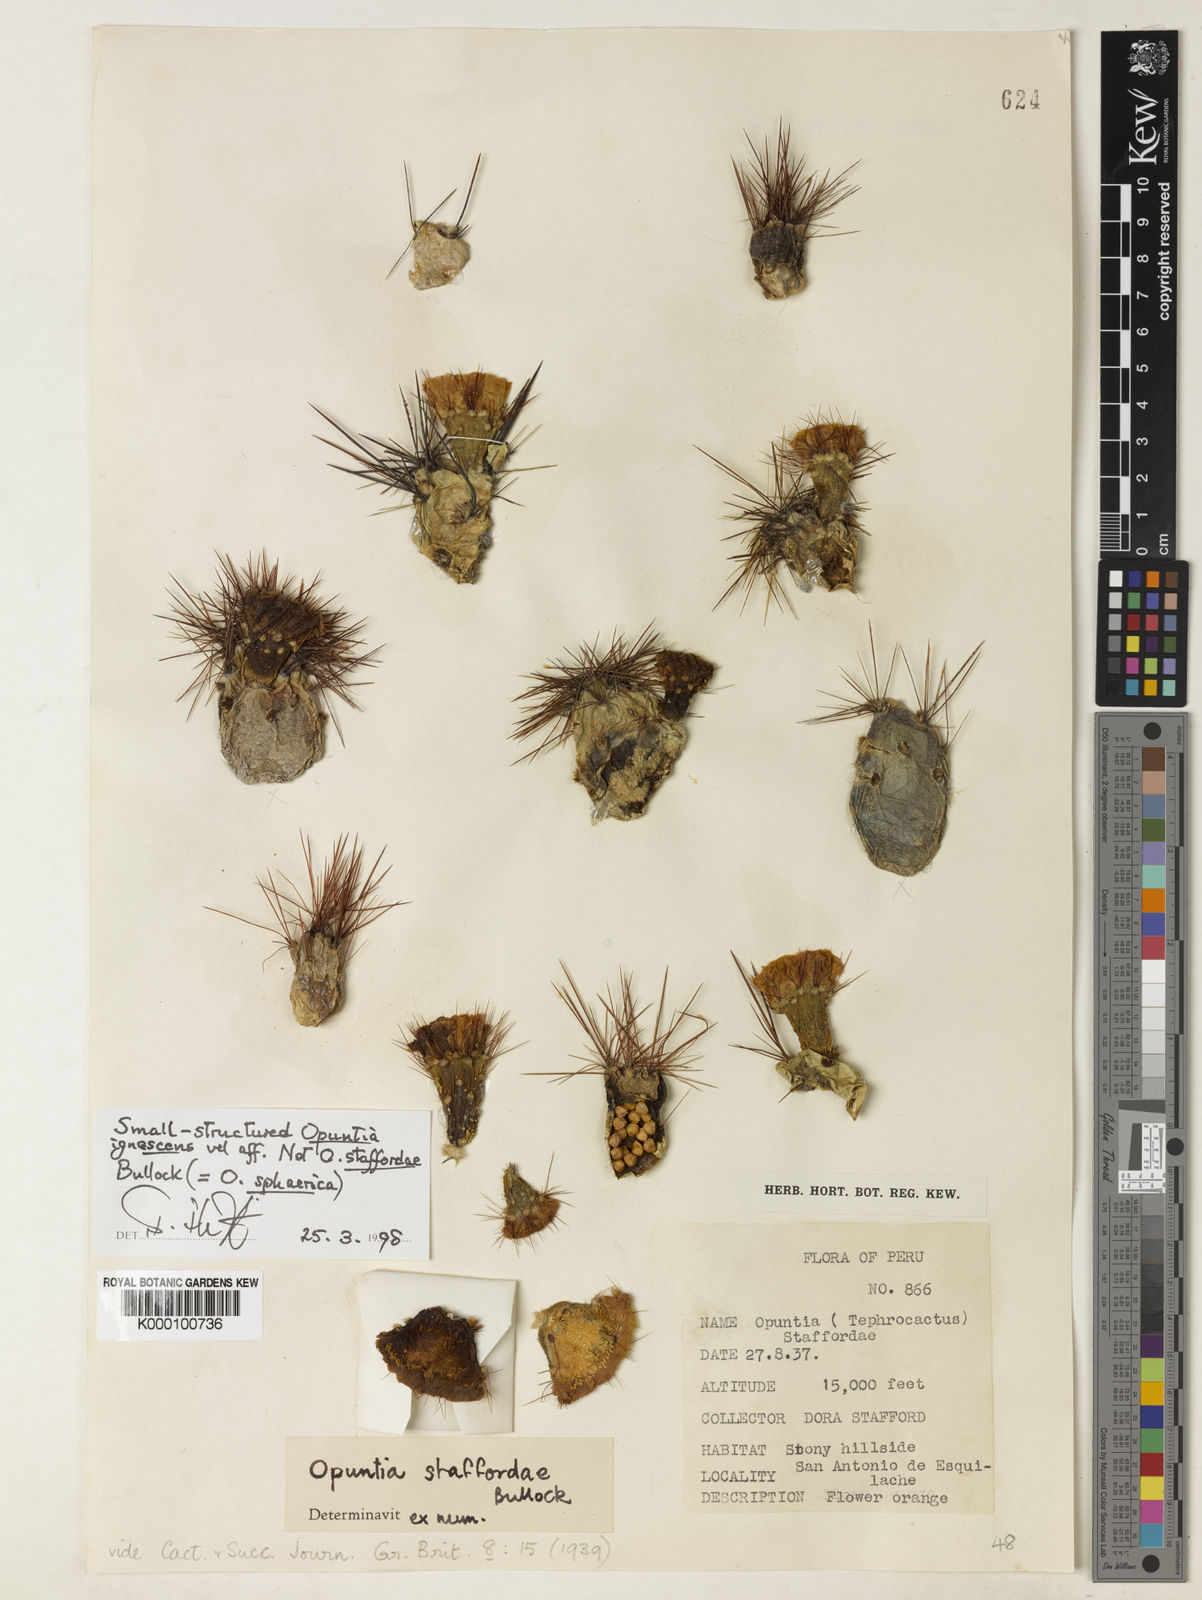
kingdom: Plantae
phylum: Tracheophyta
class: Magnoliopsida
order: Caryophyllales
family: Cactaceae
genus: Cumulopuntia
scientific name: Cumulopuntia glomerata
